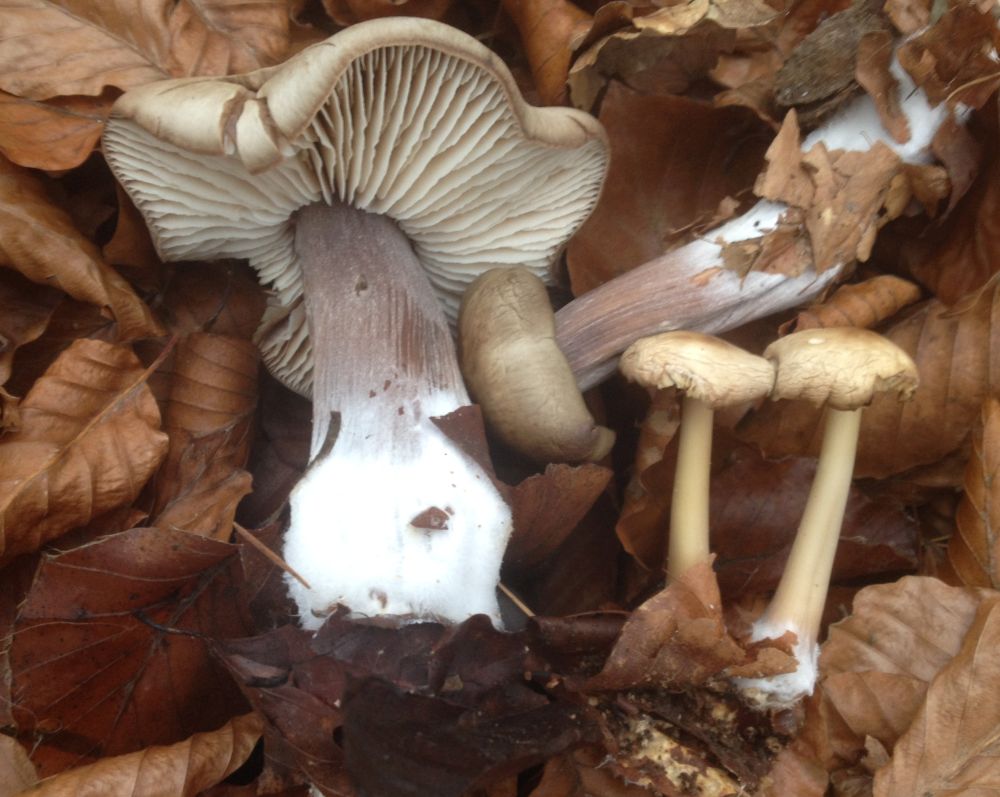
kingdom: Fungi
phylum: Basidiomycota
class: Agaricomycetes
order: Agaricales
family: Omphalotaceae
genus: Rhodocollybia
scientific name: Rhodocollybia asema
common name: horngrå fladhat
